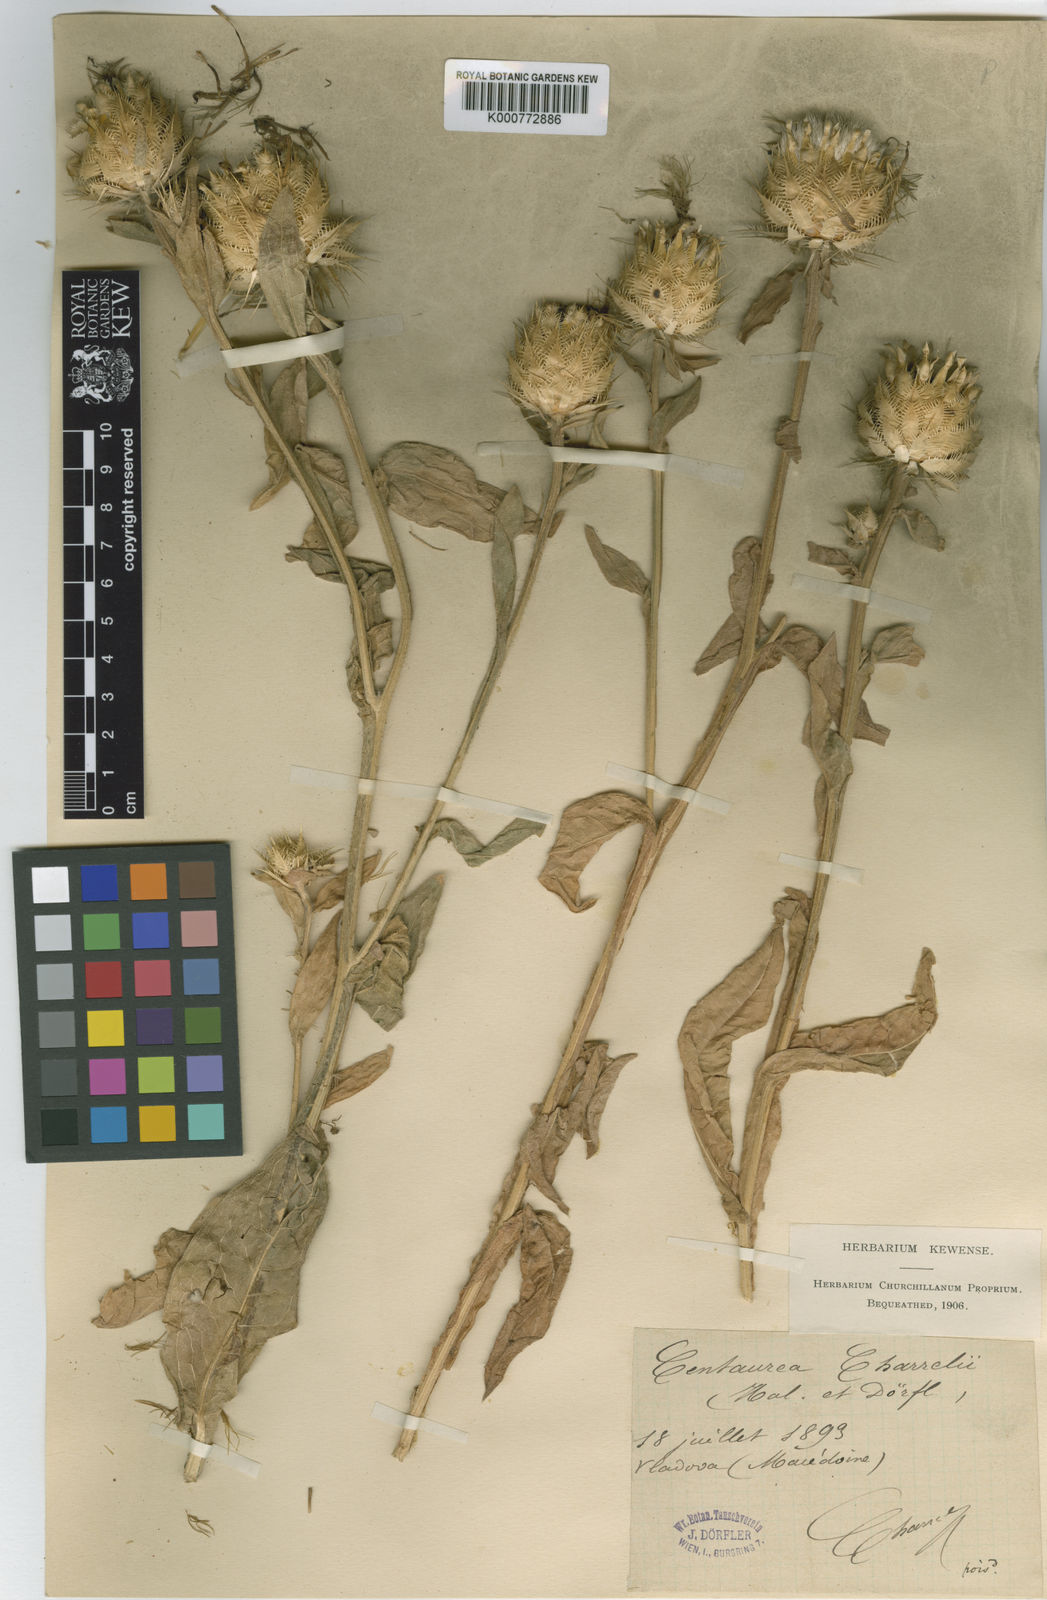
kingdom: Plantae
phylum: Tracheophyta
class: Magnoliopsida
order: Asterales
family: Asteraceae
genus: Centaurea
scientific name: Centaurea
